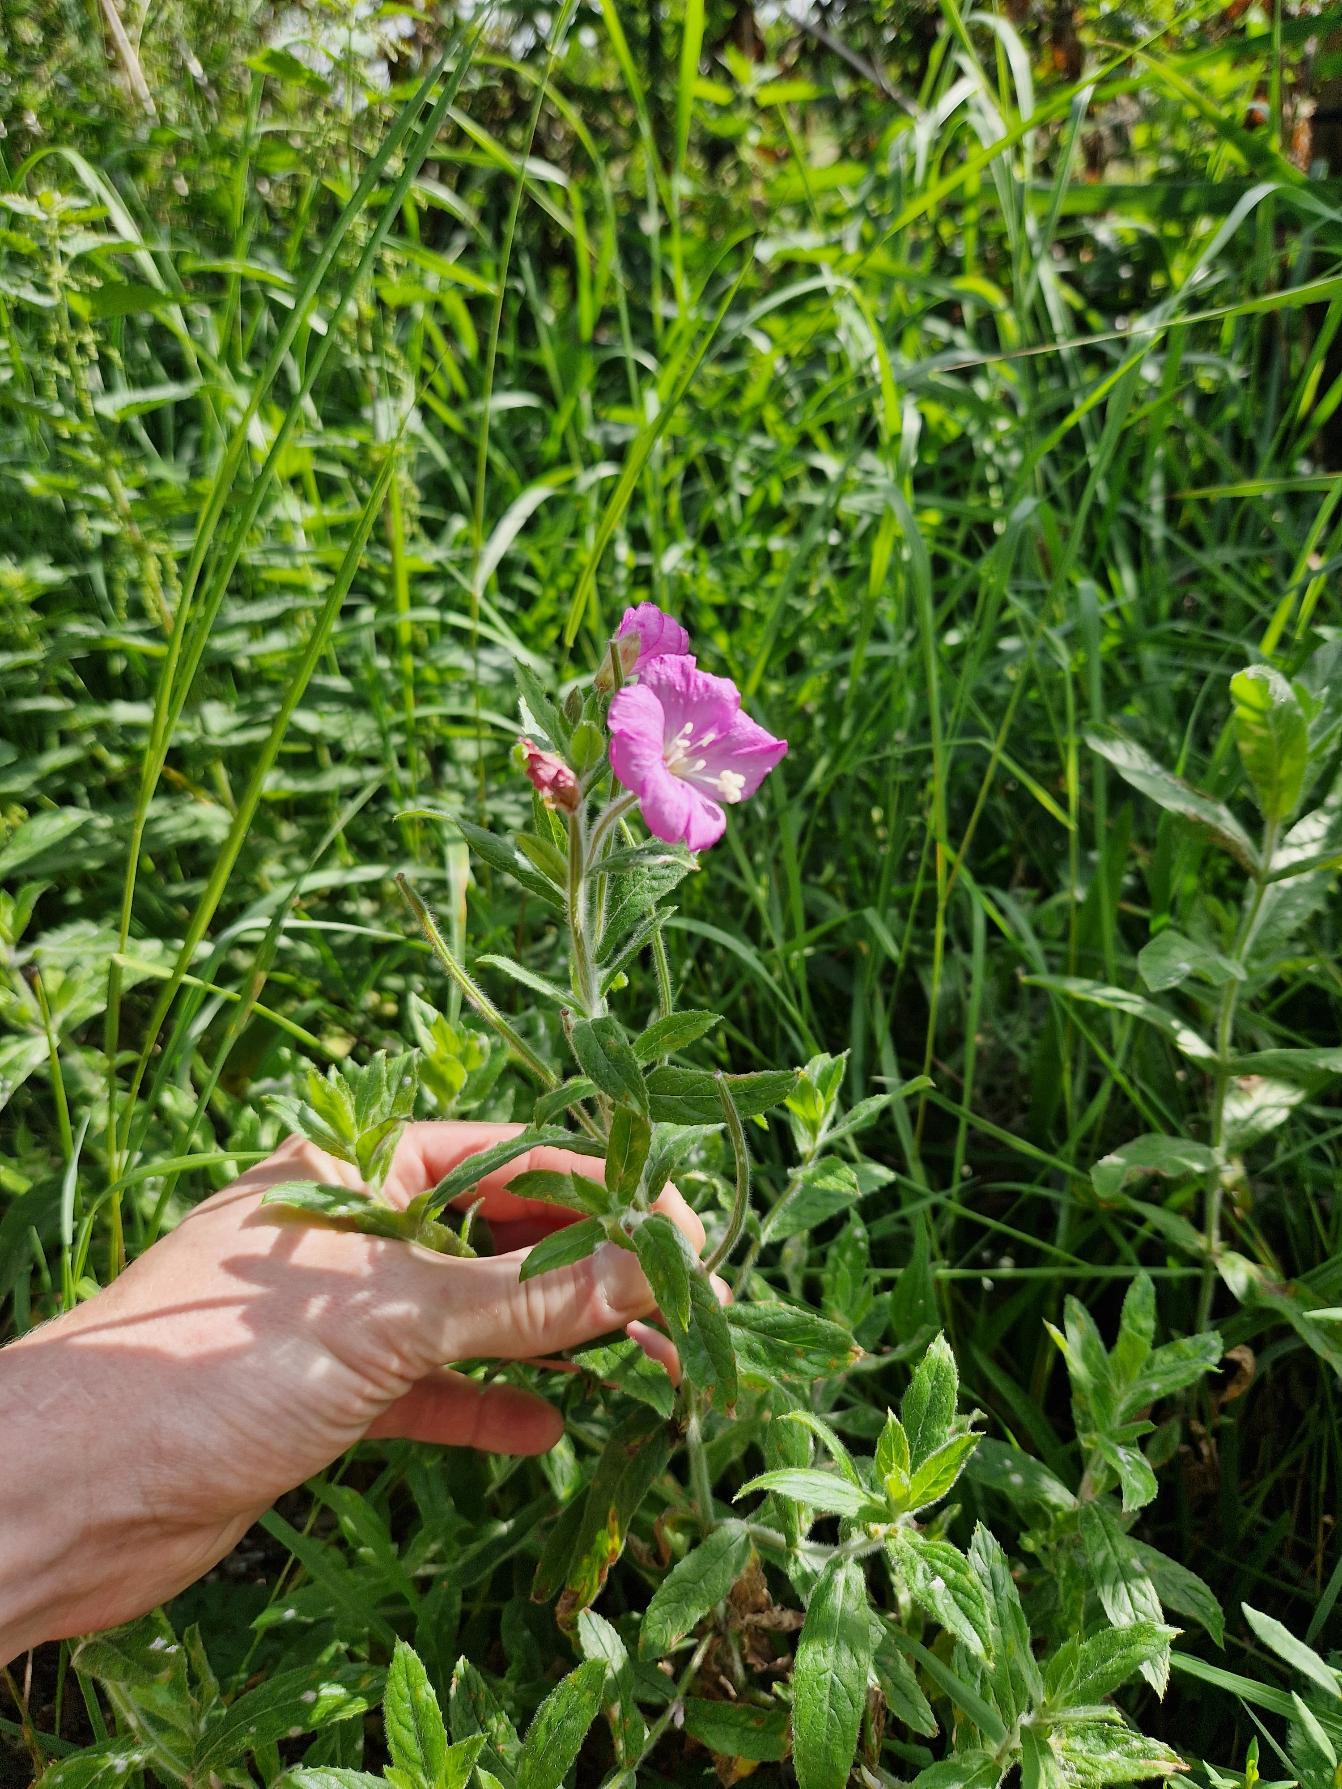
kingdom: Plantae
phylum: Tracheophyta
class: Magnoliopsida
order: Myrtales
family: Onagraceae
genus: Epilobium
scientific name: Epilobium hirsutum
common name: Lådden dueurt
